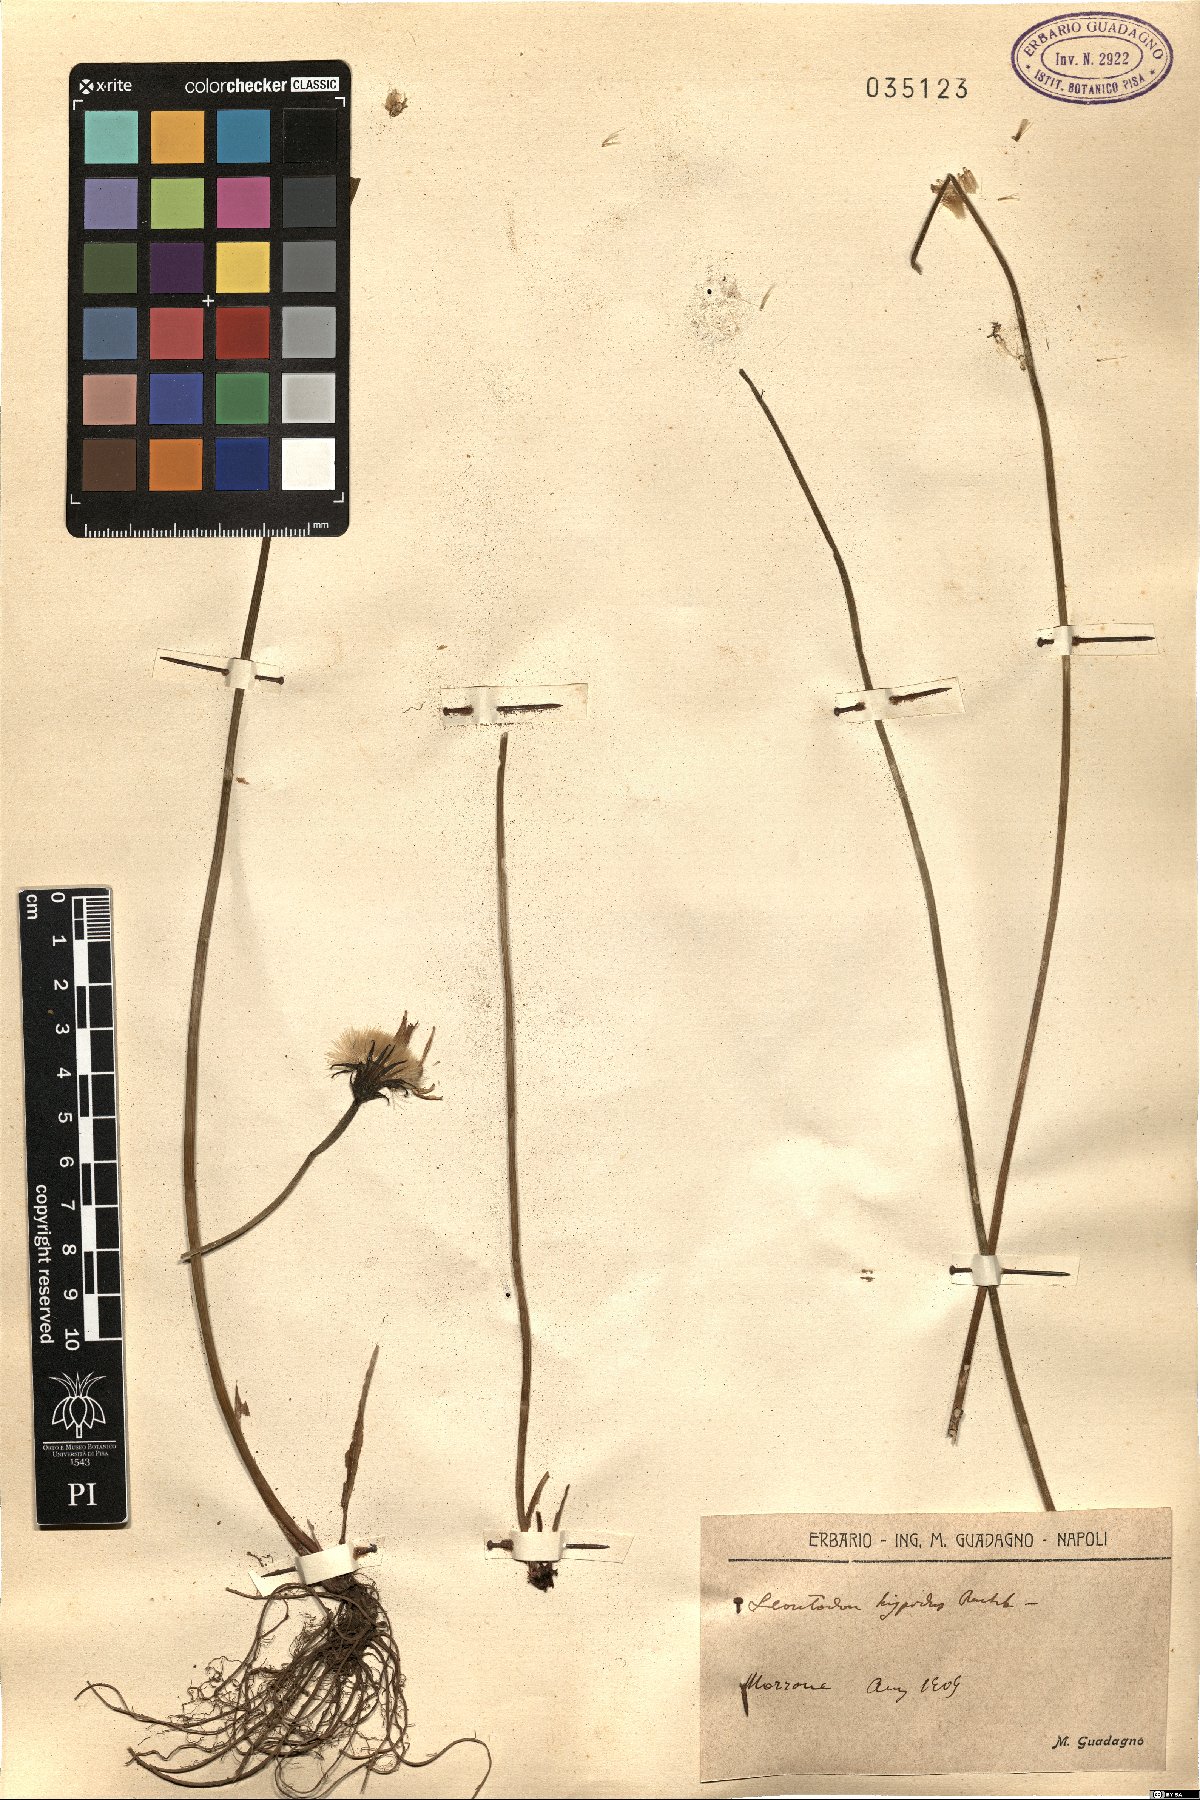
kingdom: Plantae
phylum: Tracheophyta
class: Magnoliopsida
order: Asterales
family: Asteraceae
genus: Leontodon
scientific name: Leontodon hispidus
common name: Rough hawkbit
